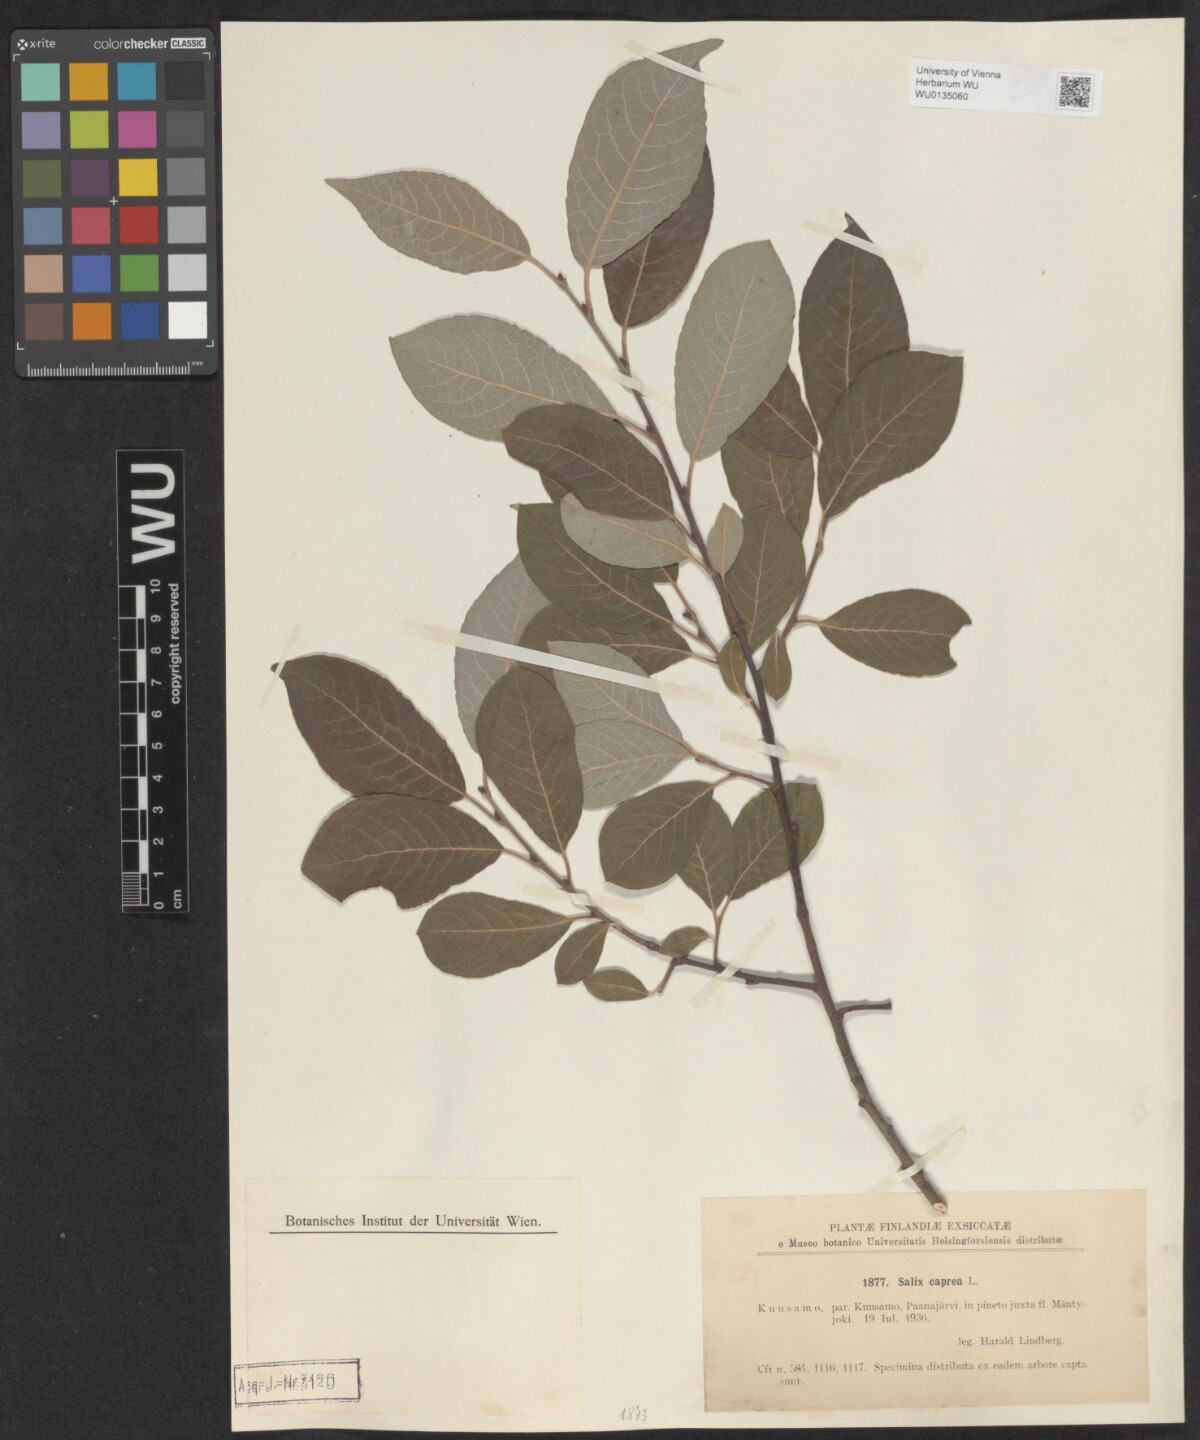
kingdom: Plantae
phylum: Tracheophyta
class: Magnoliopsida
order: Malpighiales
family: Salicaceae
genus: Salix
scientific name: Salix caprea
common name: Goat willow
